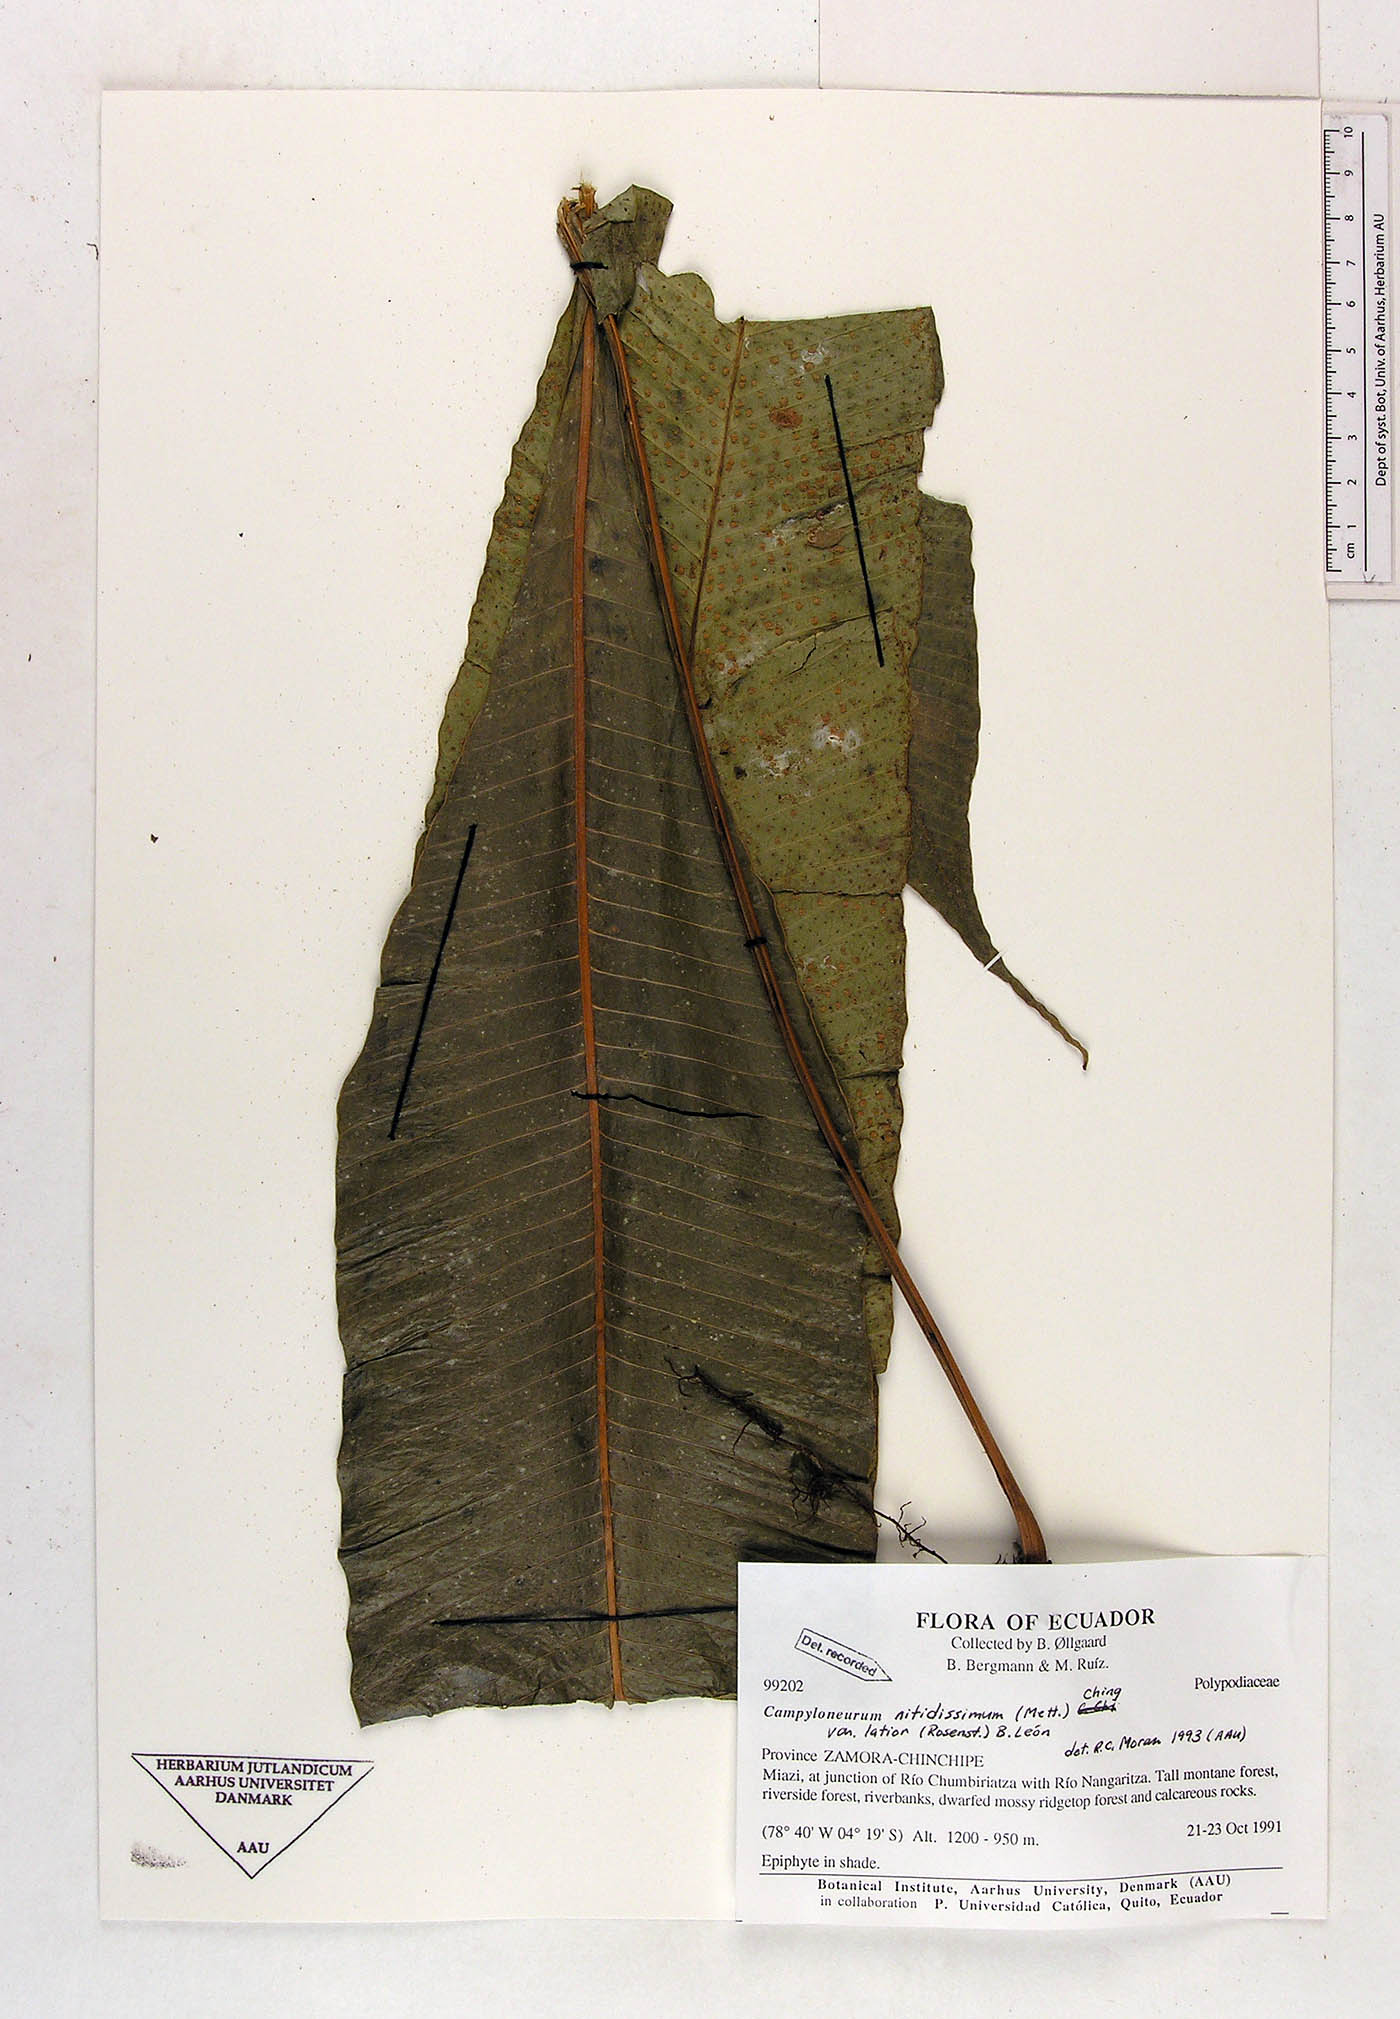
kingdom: Plantae
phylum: Tracheophyta
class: Polypodiopsida
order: Polypodiales
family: Polypodiaceae
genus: Campyloneurum
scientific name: Campyloneurum nitidissimum
